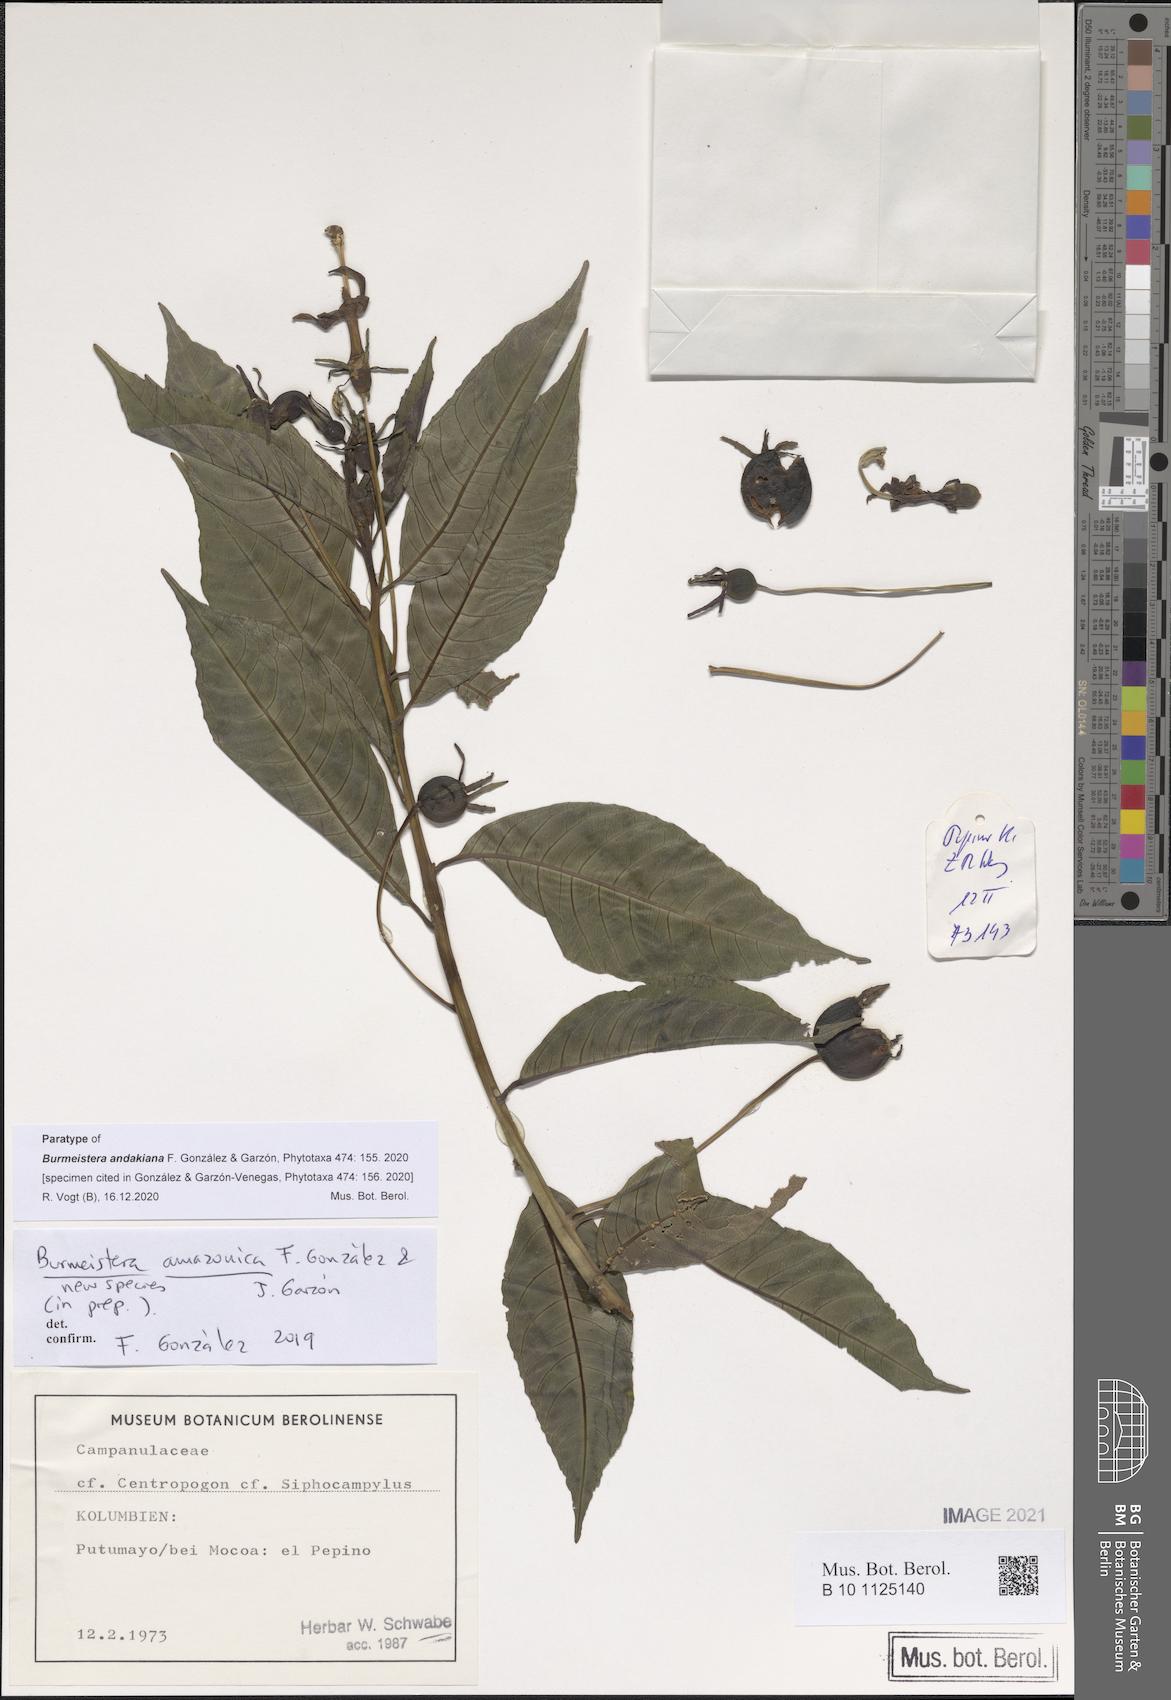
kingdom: Plantae
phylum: Tracheophyta
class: Magnoliopsida
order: Asterales
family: Campanulaceae
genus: Burmeistera
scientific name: Burmeistera andakiana
